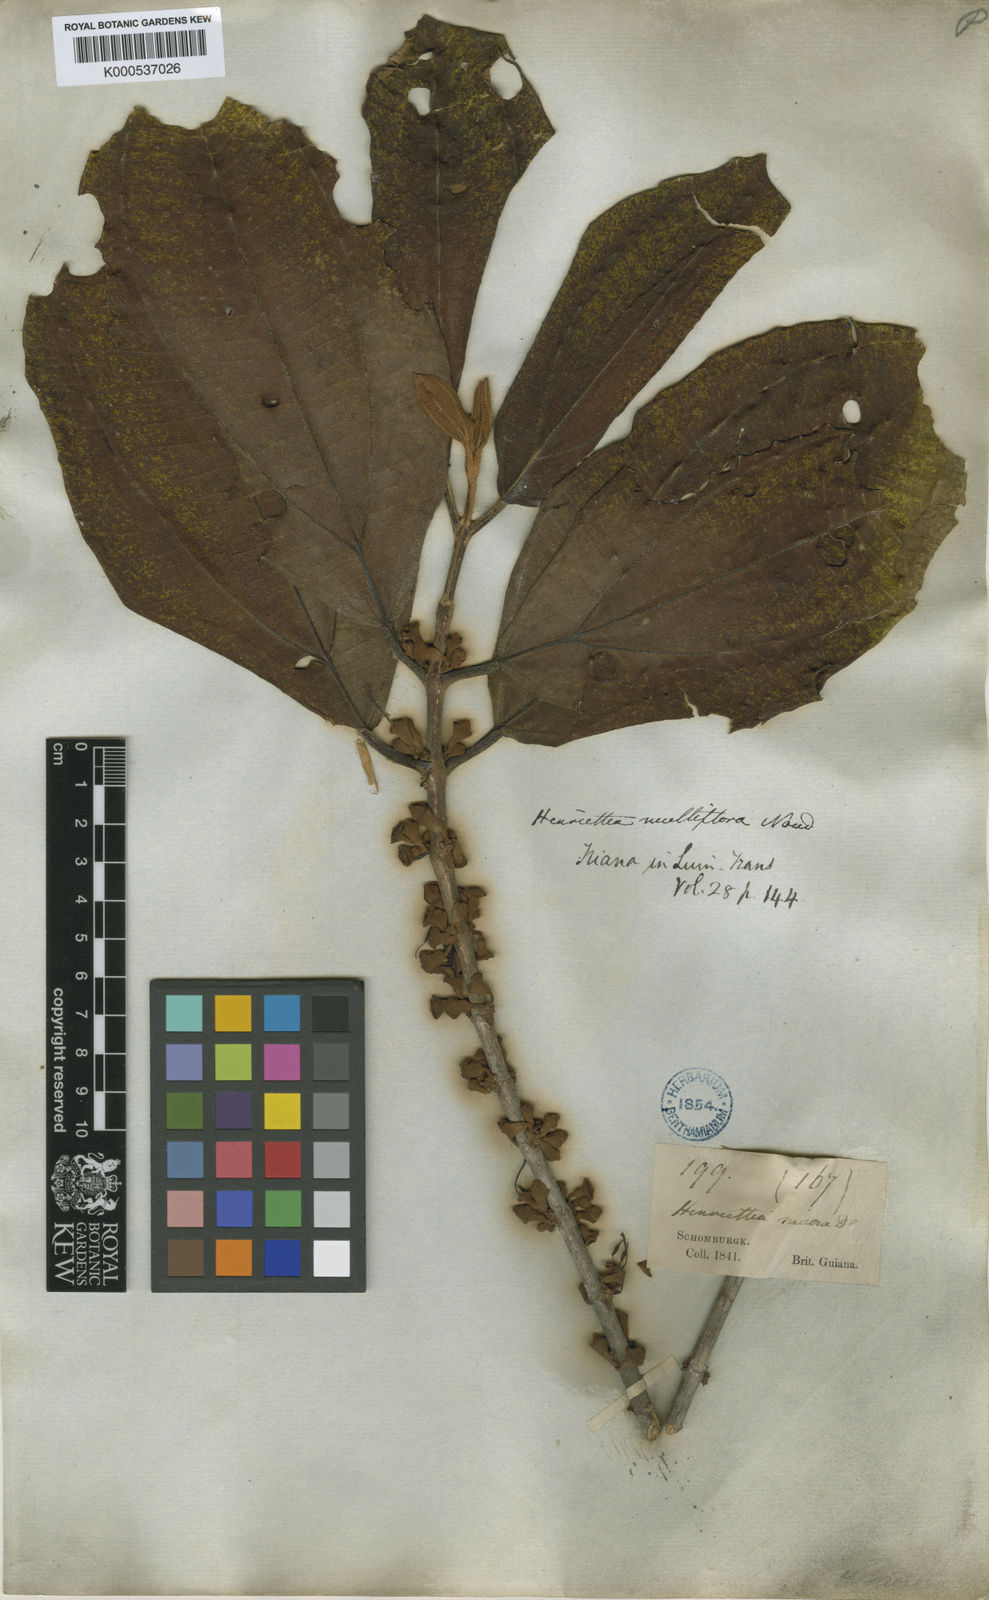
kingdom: Plantae
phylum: Tracheophyta
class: Magnoliopsida
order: Myrtales
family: Melastomataceae
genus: Henriettea
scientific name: Henriettea multiflora
